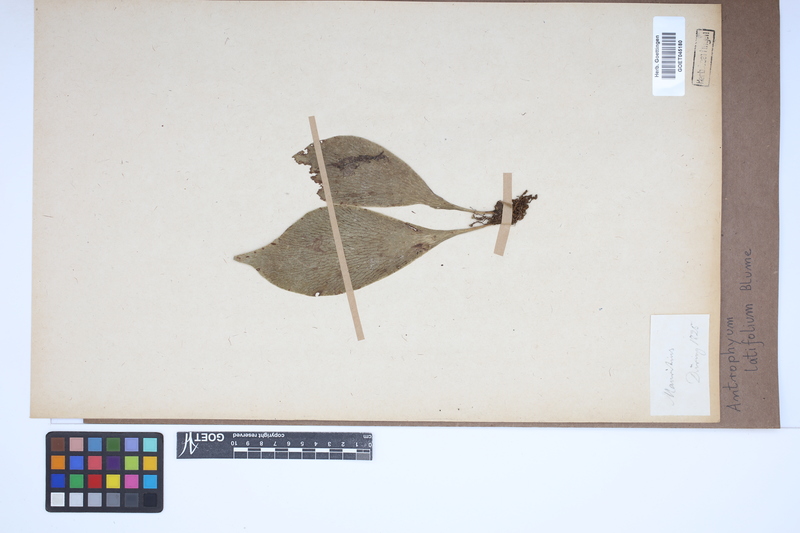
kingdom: Plantae
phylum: Tracheophyta
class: Polypodiopsida
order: Polypodiales
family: Pteridaceae
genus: Antrophyum
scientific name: Antrophyum latifolium
